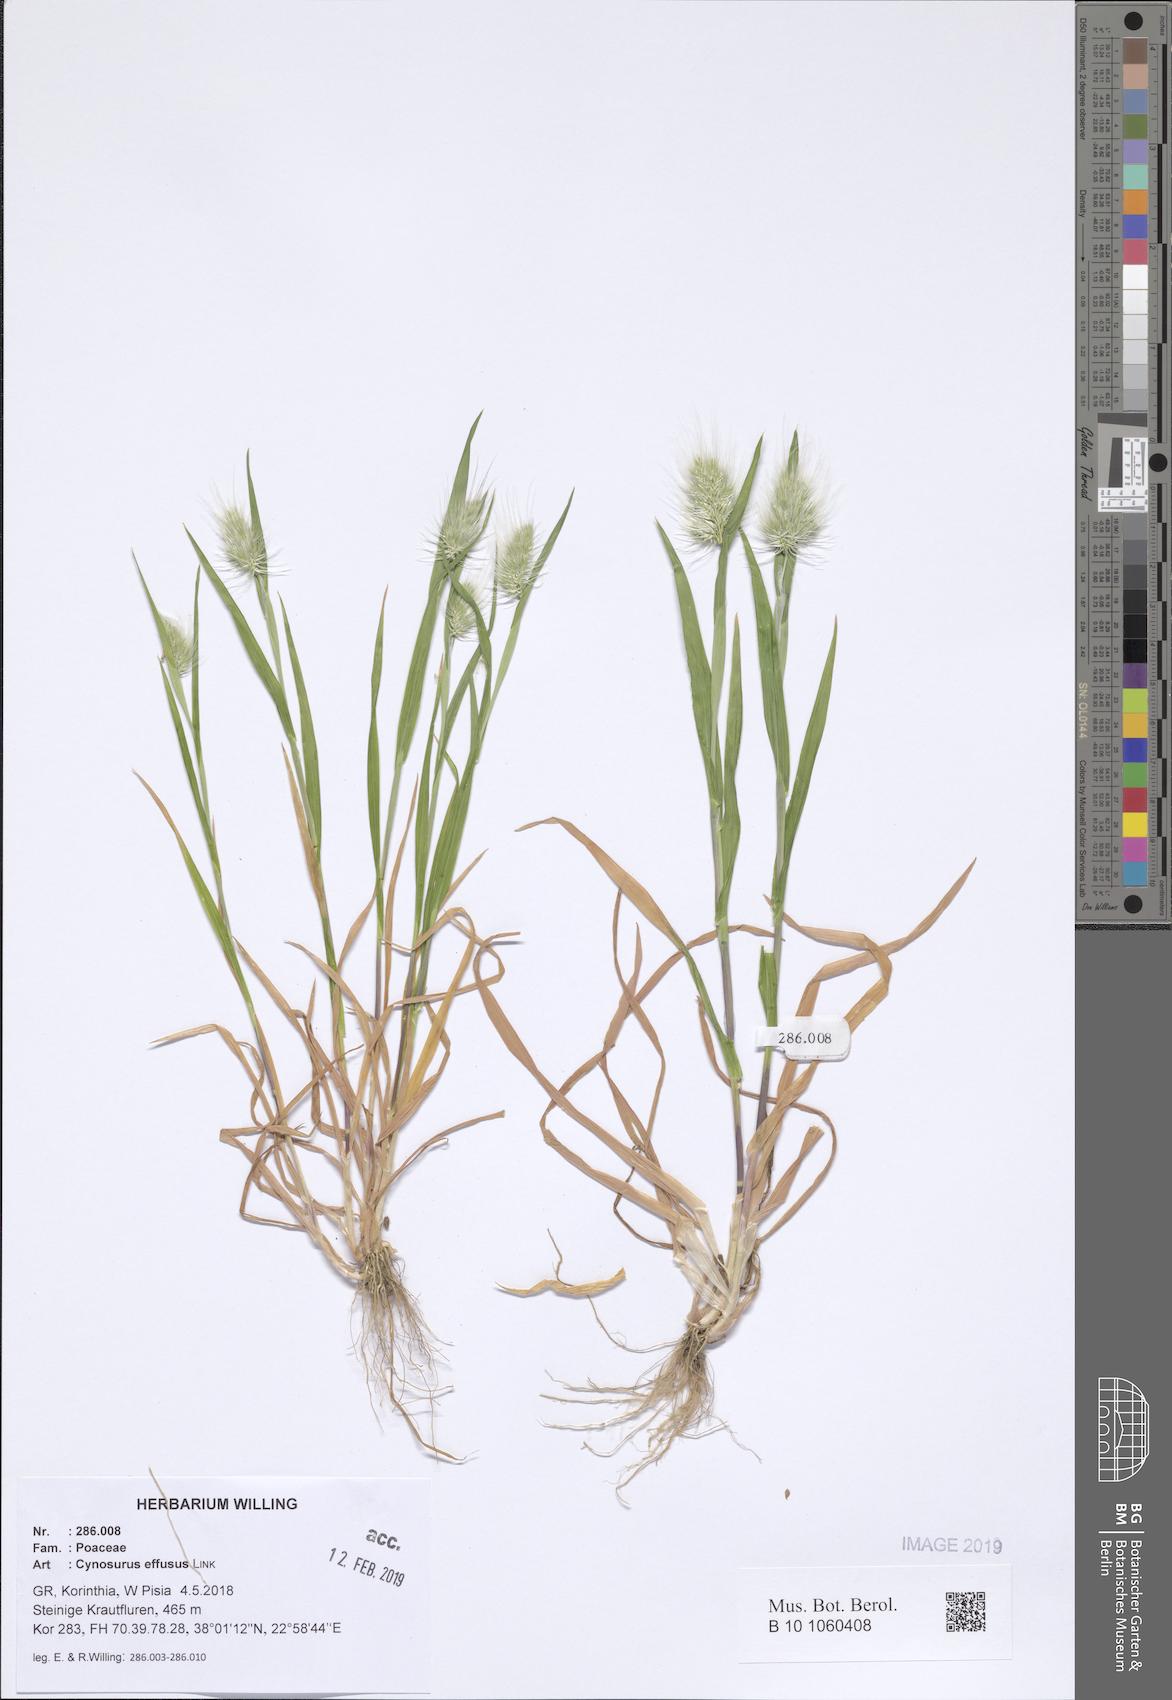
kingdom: Plantae
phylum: Tracheophyta
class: Liliopsida
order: Poales
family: Poaceae
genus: Cynosurus
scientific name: Cynosurus effusus
